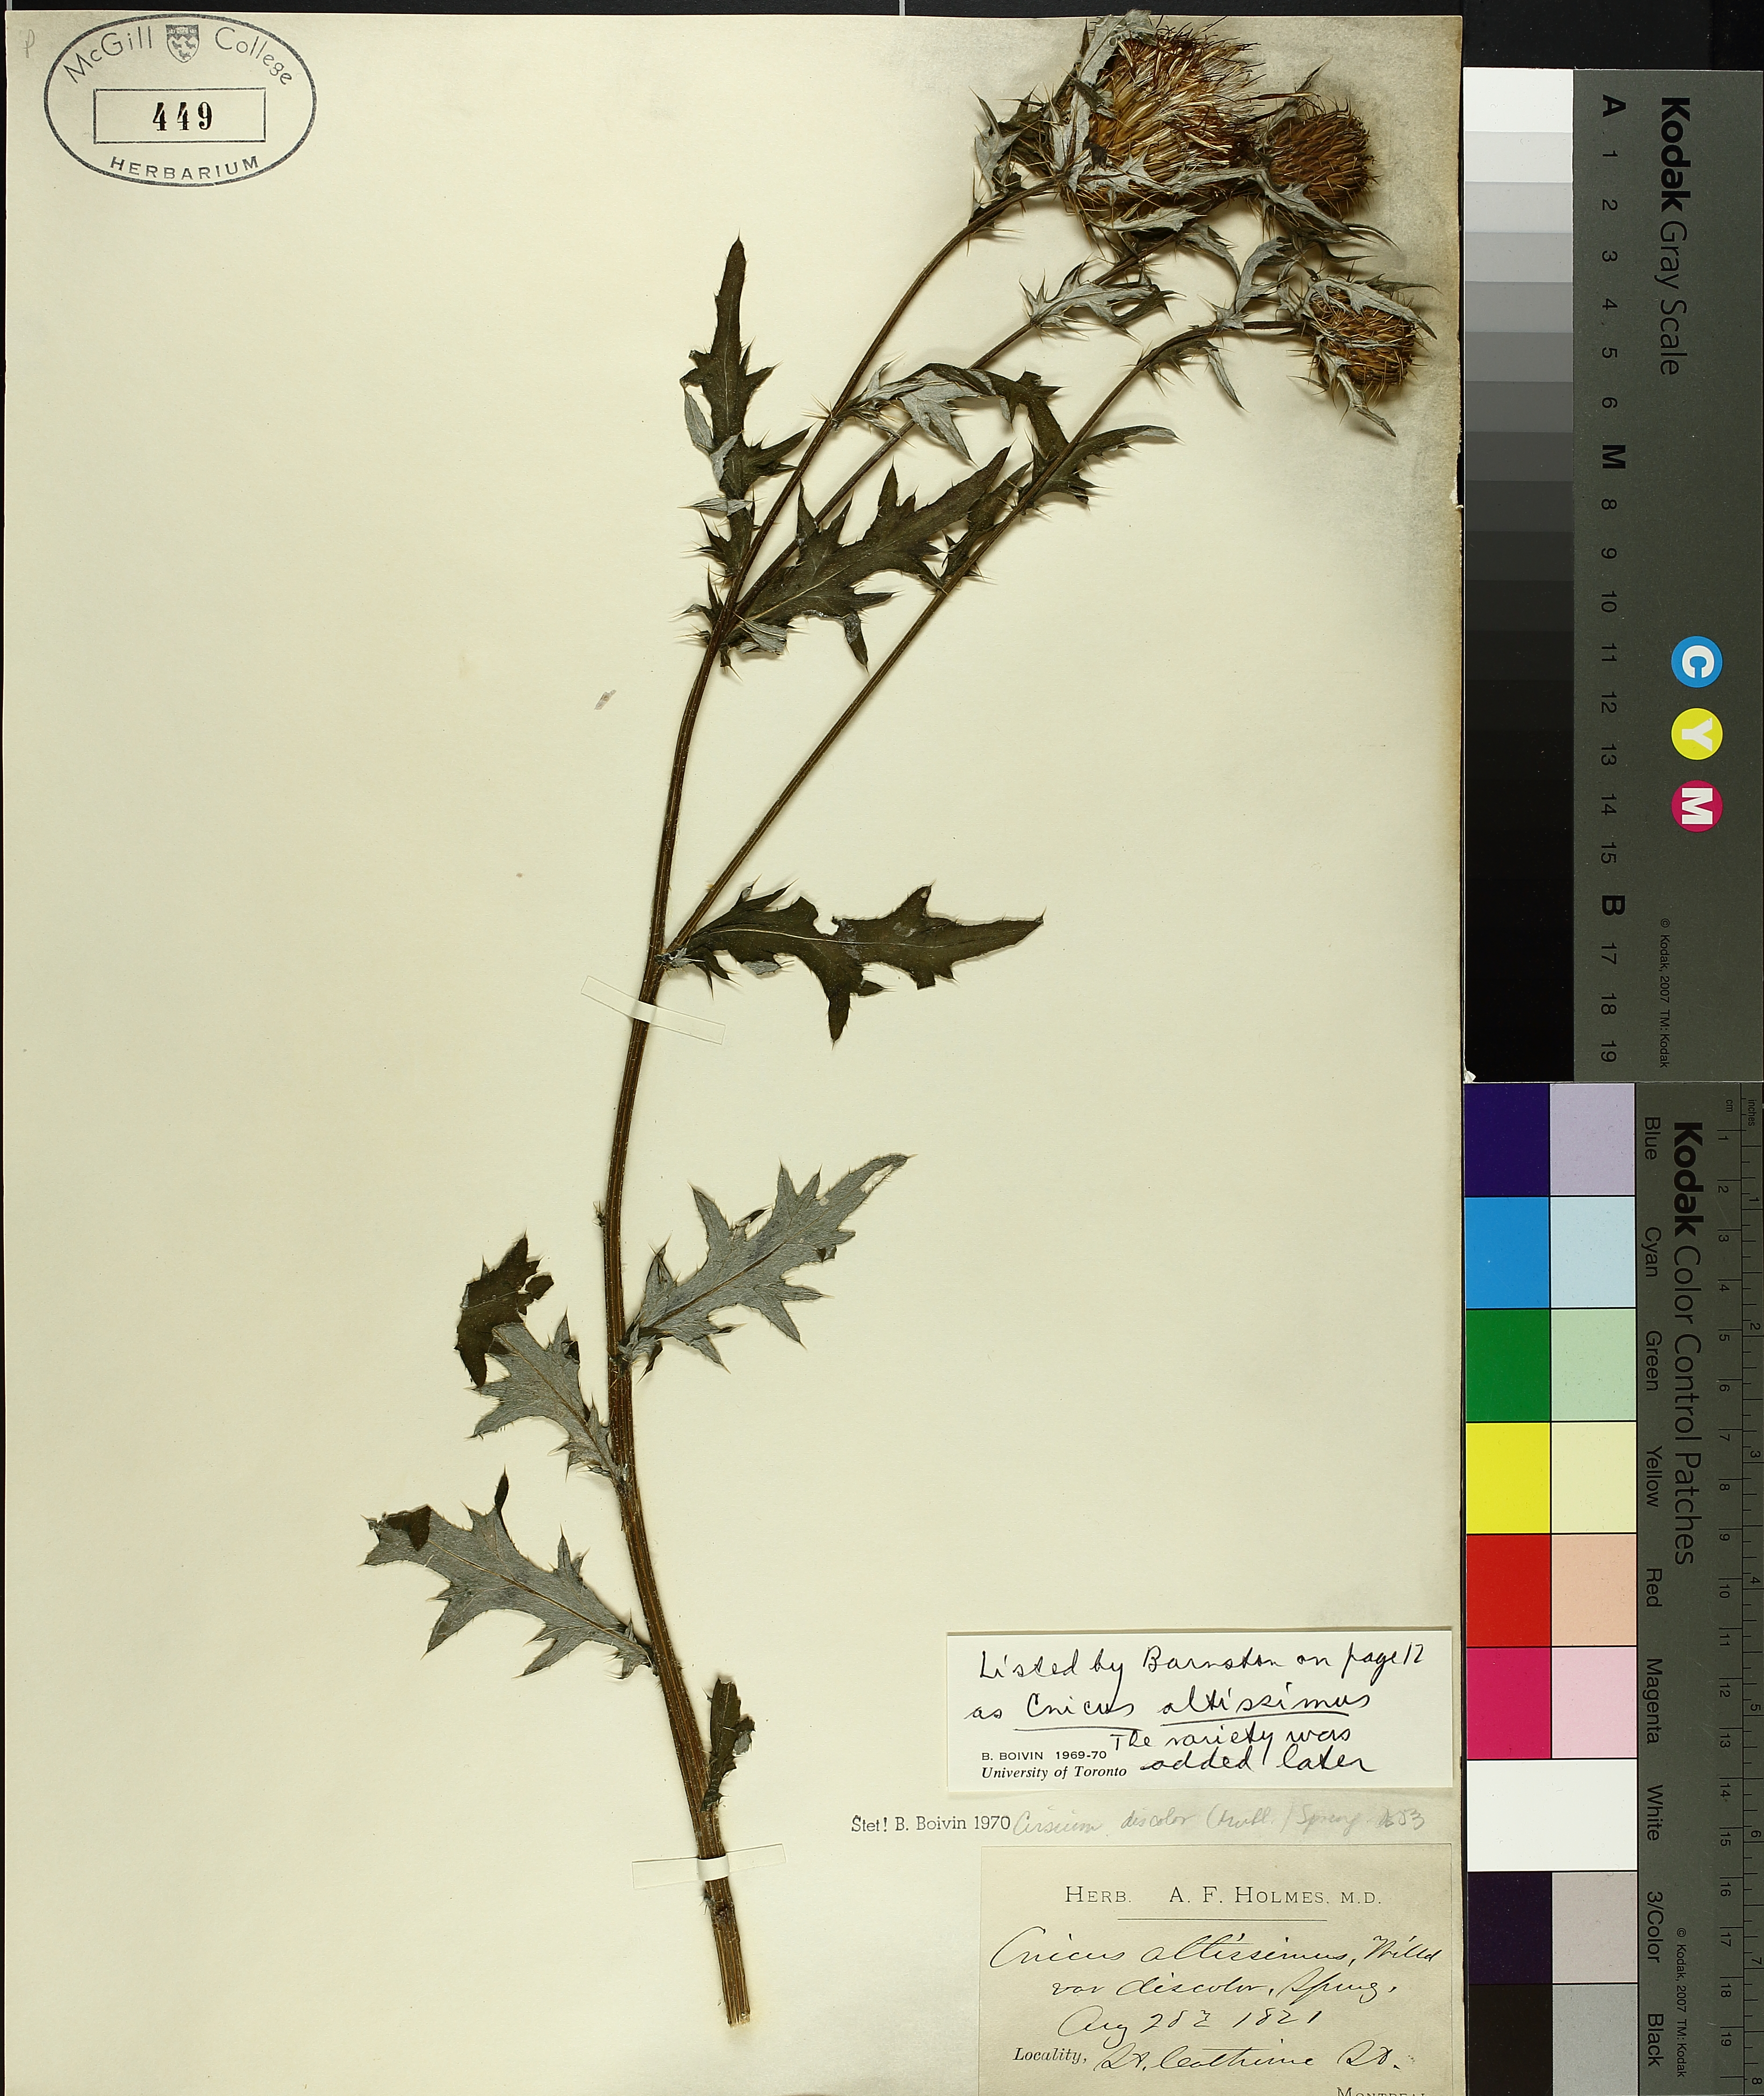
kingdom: Plantae
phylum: Tracheophyta
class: Magnoliopsida
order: Asterales
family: Asteraceae
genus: Cirsium
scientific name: Cirsium discolor
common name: Field thistle
